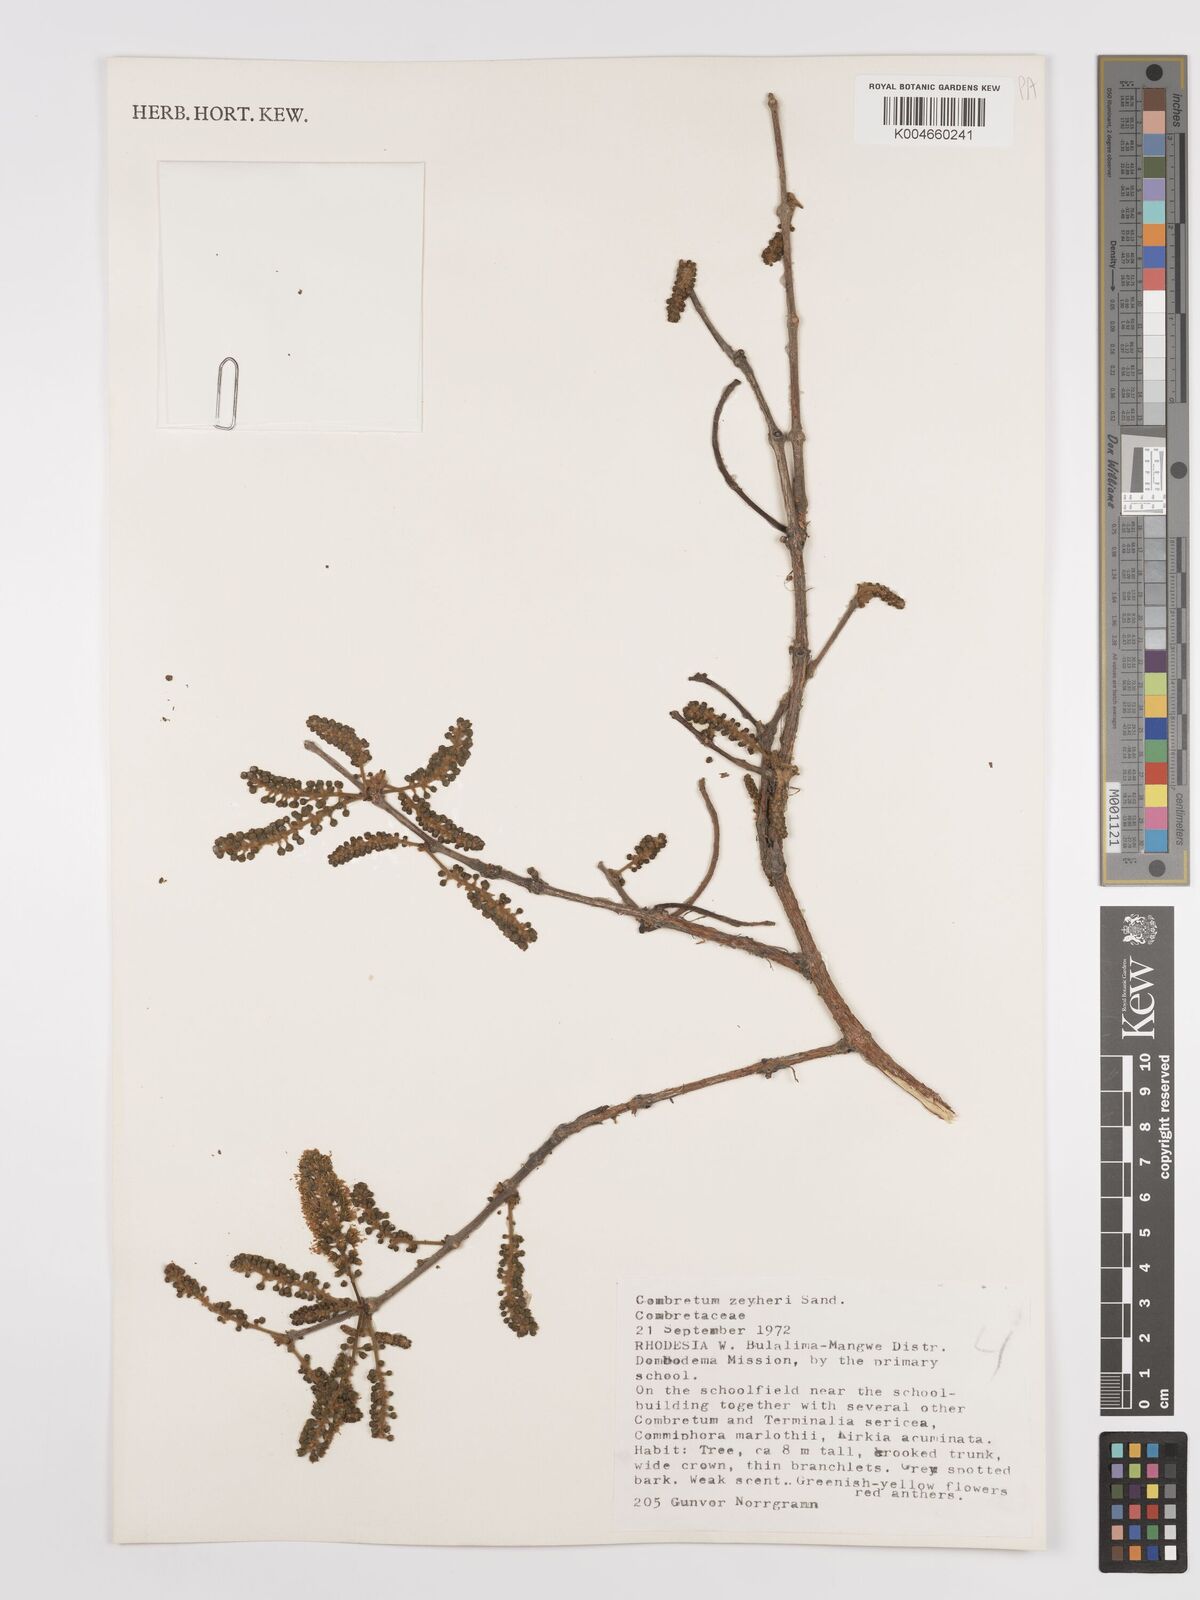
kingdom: Plantae
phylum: Tracheophyta
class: Magnoliopsida
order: Myrtales
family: Combretaceae
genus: Combretum
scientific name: Combretum zeyheri
